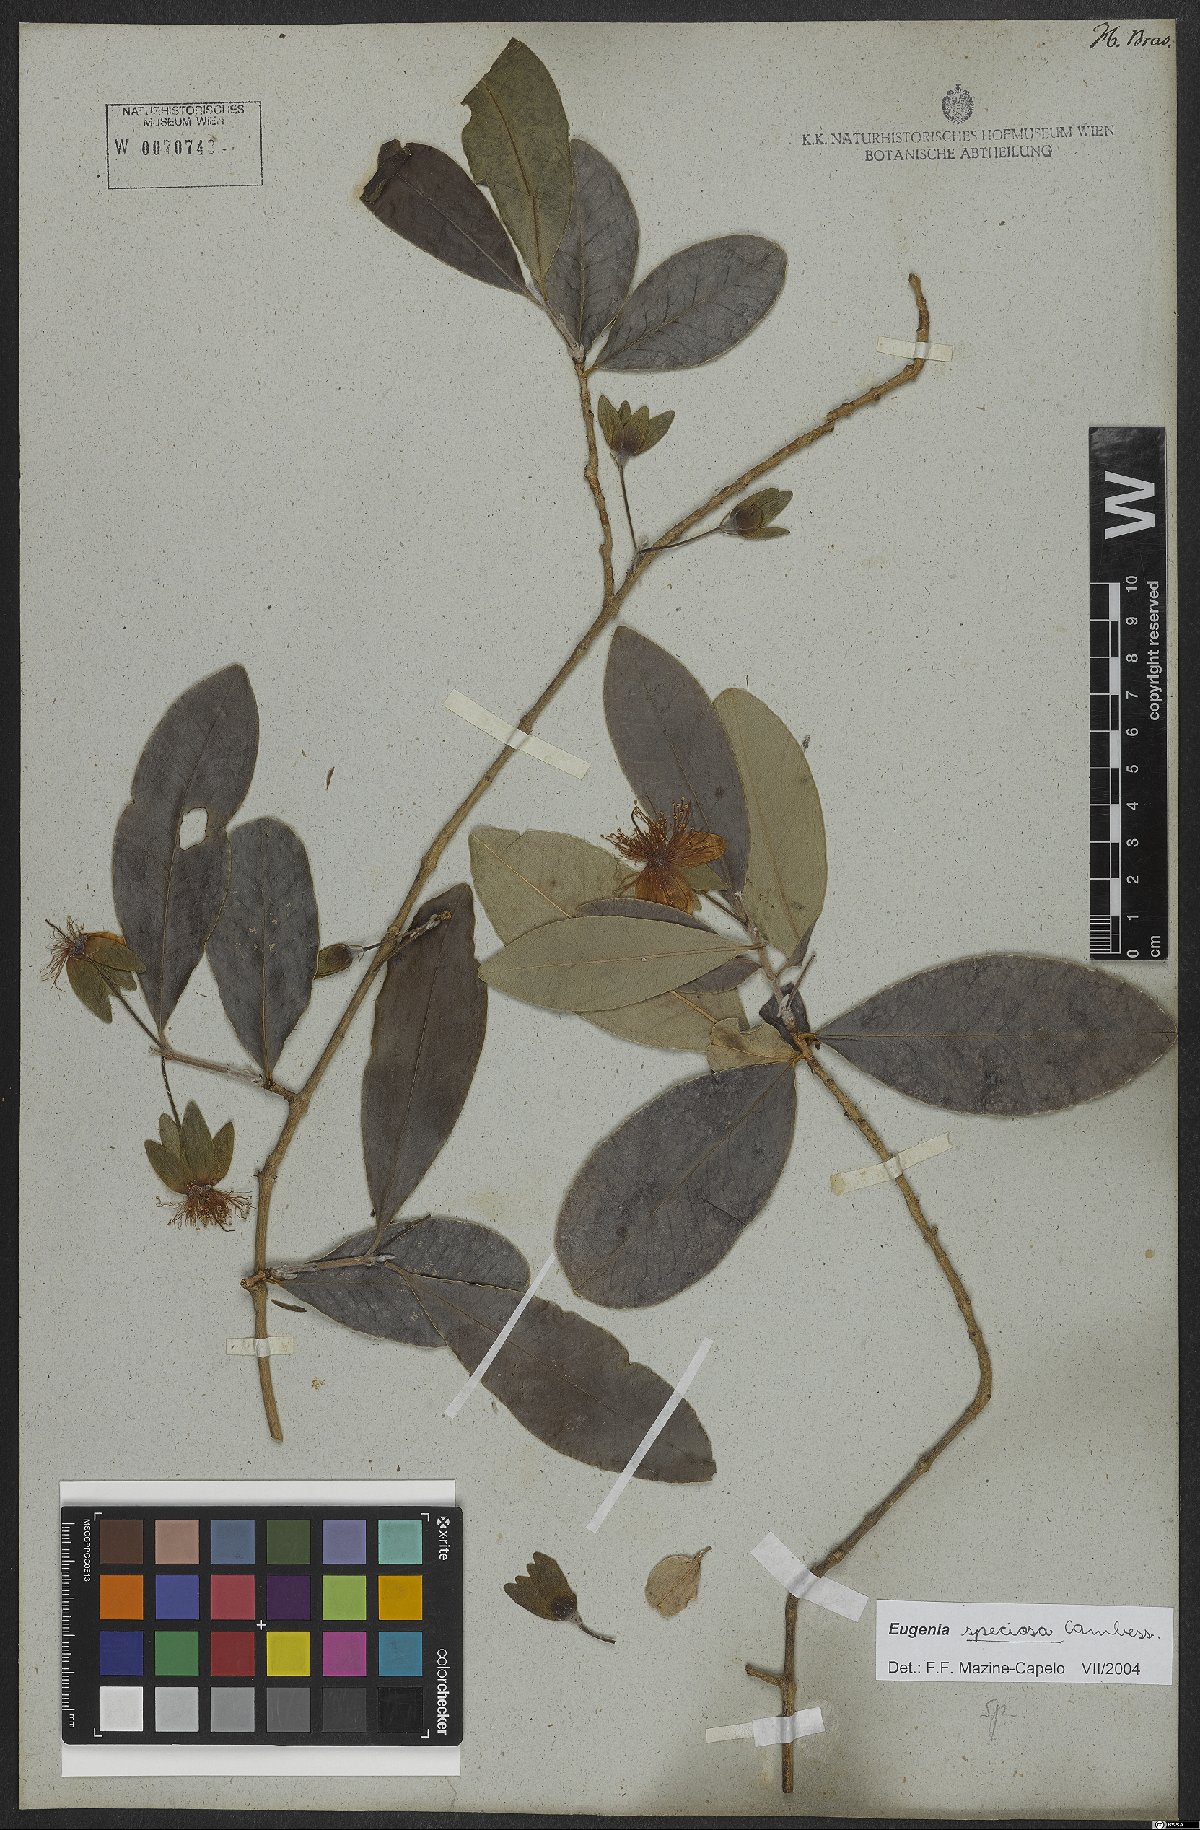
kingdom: Plantae
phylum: Tracheophyta
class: Magnoliopsida
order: Myrtales
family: Myrtaceae
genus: Eugenia
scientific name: Eugenia speciosa
